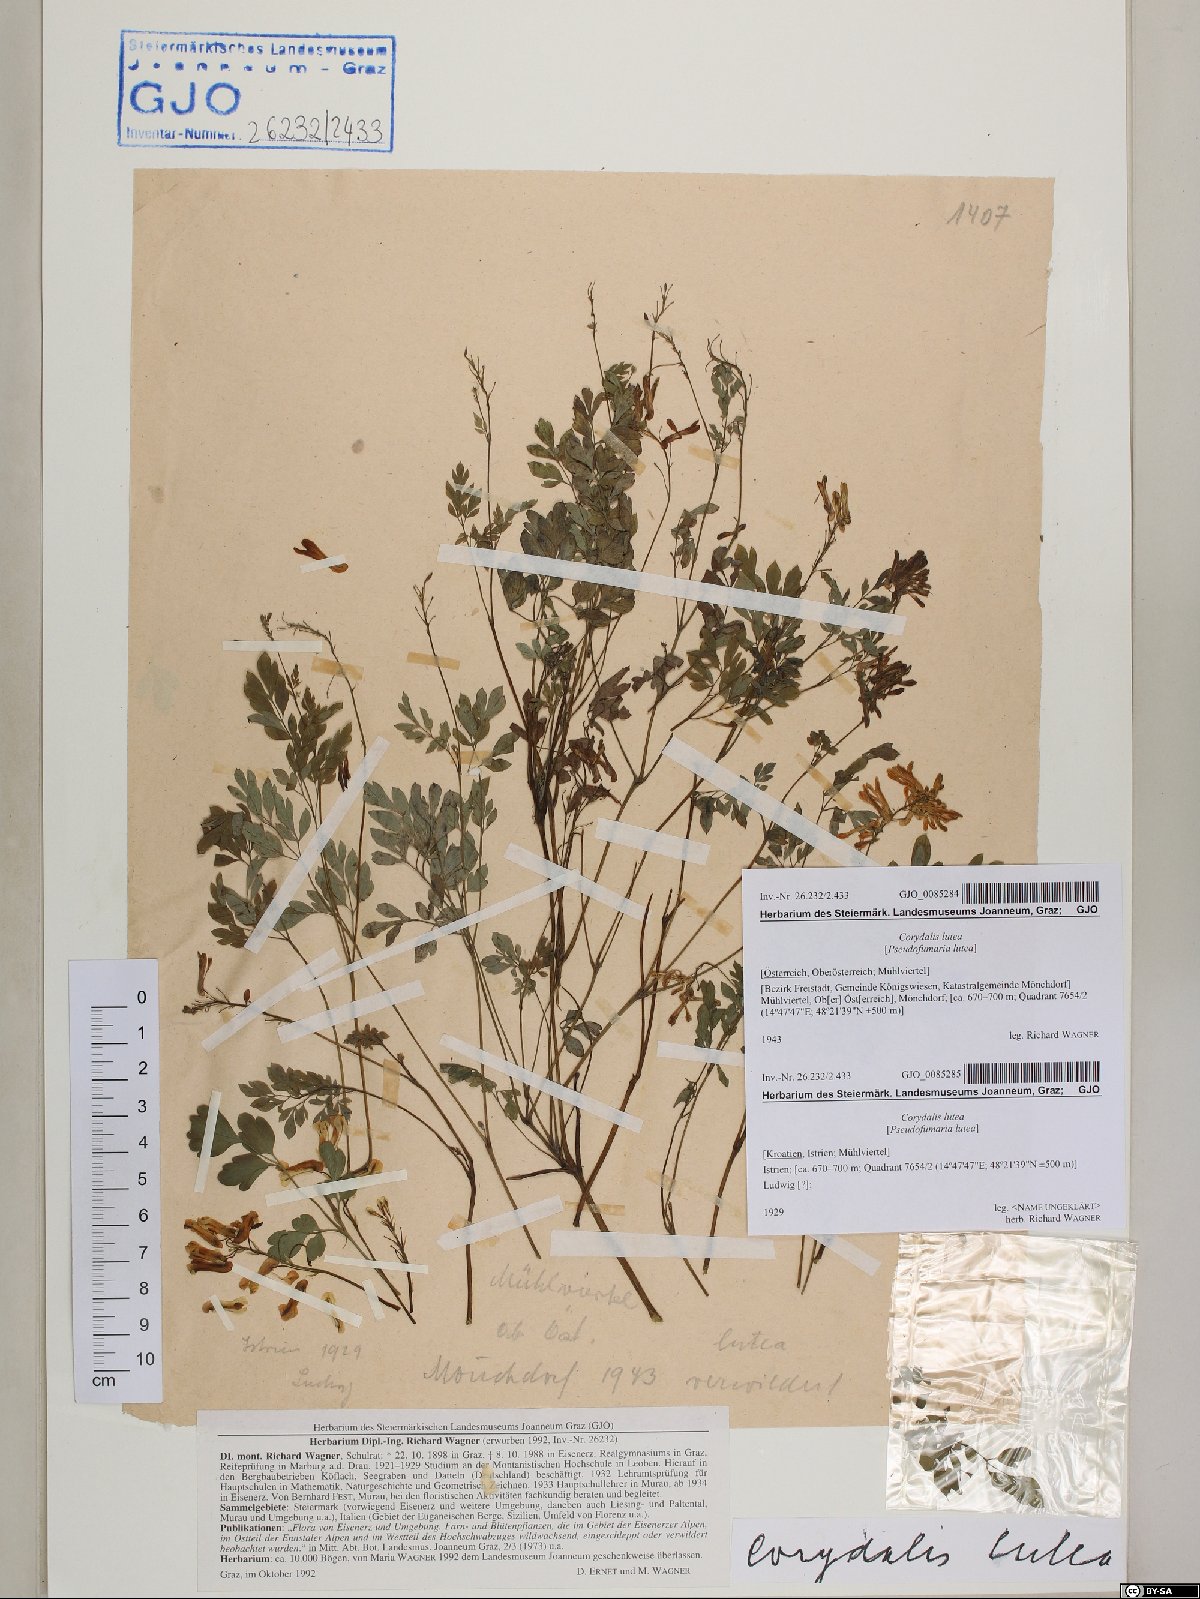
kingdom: Plantae
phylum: Tracheophyta
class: Magnoliopsida
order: Ranunculales
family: Papaveraceae
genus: Pseudofumaria
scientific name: Pseudofumaria lutea
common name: Yellow corydalis
